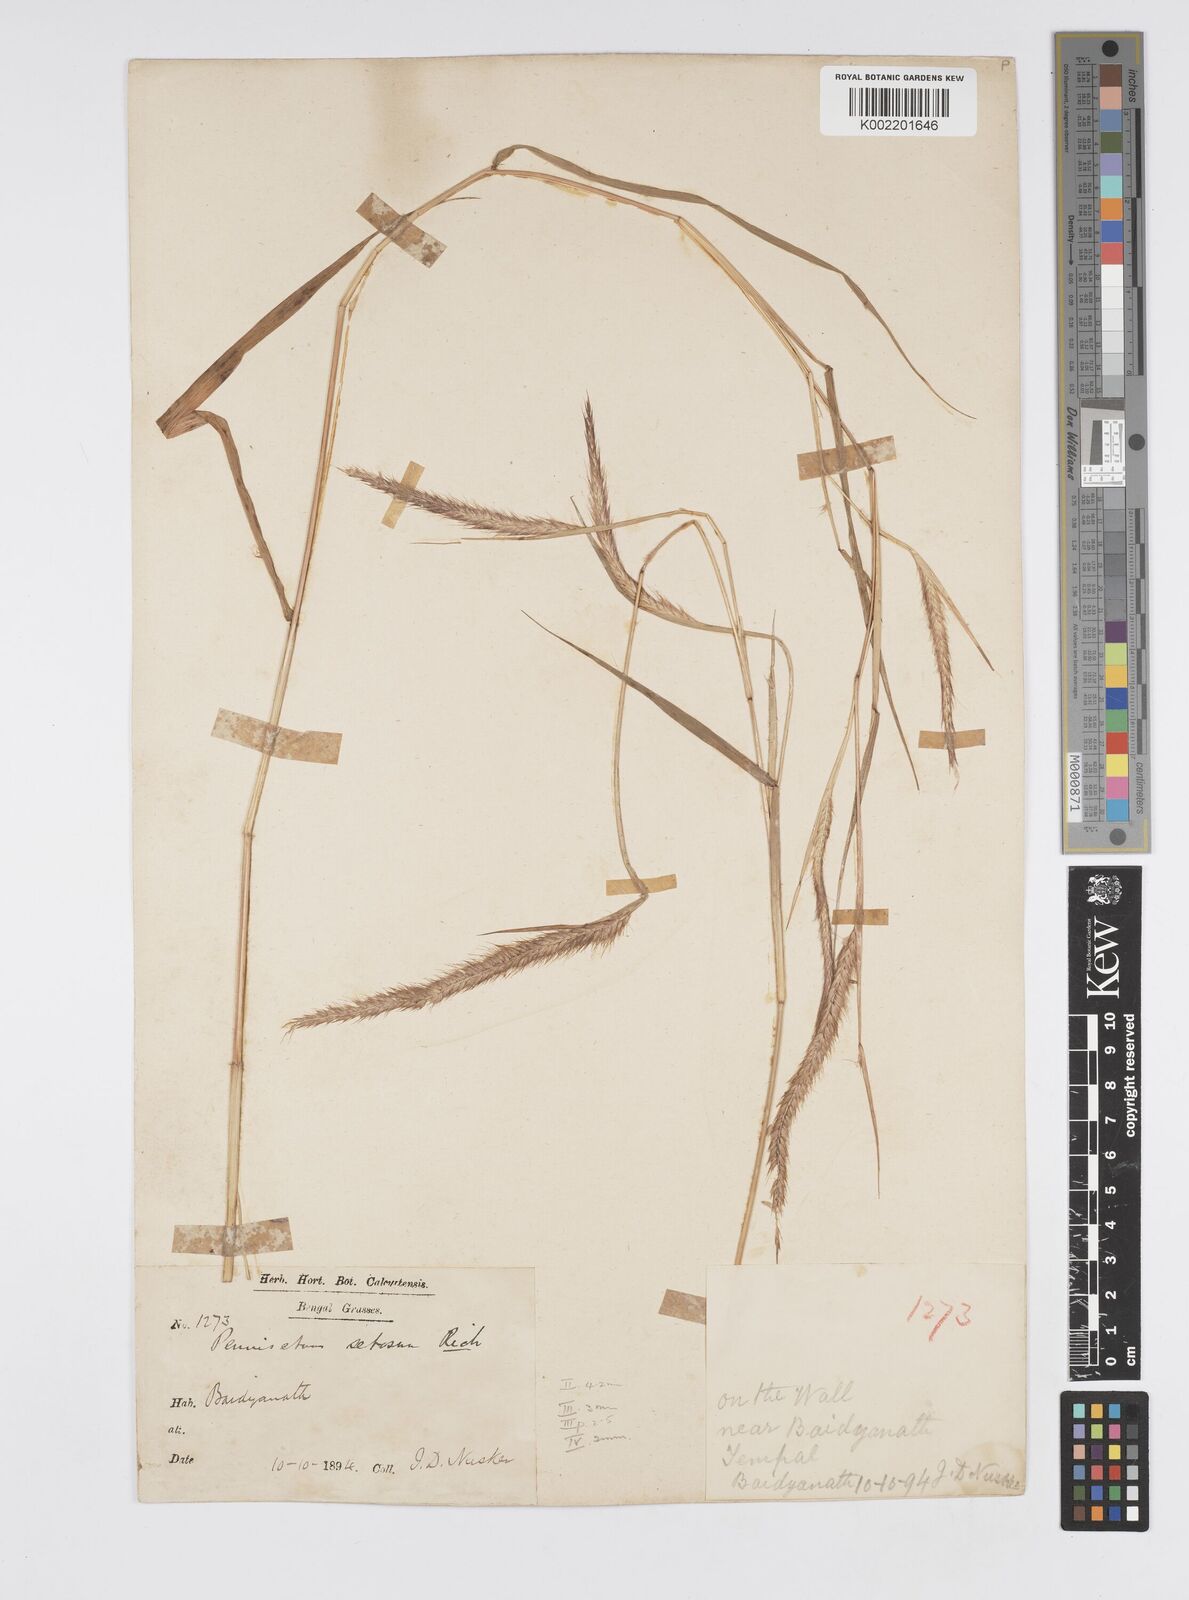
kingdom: Plantae
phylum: Tracheophyta
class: Liliopsida
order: Poales
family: Poaceae
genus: Setaria
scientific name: Setaria parviflora
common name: Knotroot bristle-grass
